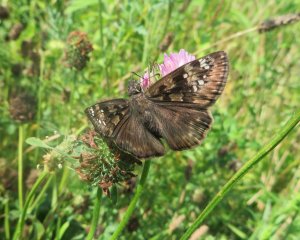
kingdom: Animalia
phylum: Arthropoda
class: Insecta
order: Lepidoptera
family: Hesperiidae
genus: Gesta
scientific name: Gesta
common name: Horace's Duskywing
